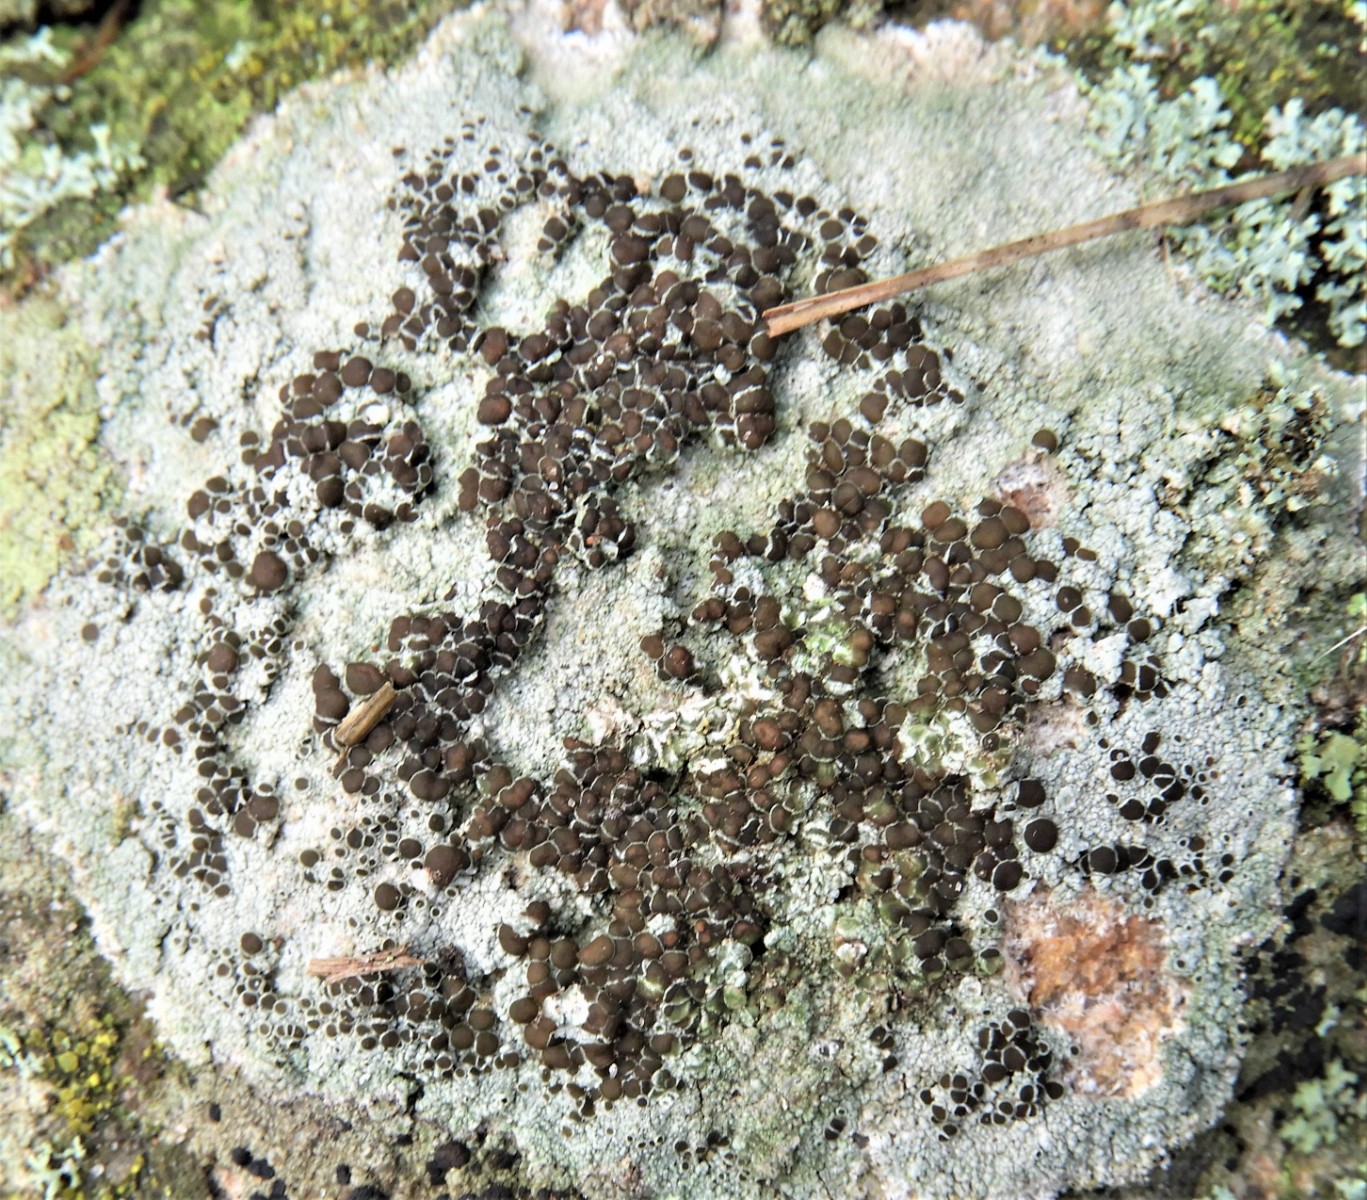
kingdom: Fungi
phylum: Ascomycota
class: Lecanoromycetes
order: Lecanorales
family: Lecanoraceae
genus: Lecanora
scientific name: Lecanora campestris
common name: mur-kantskivelav
